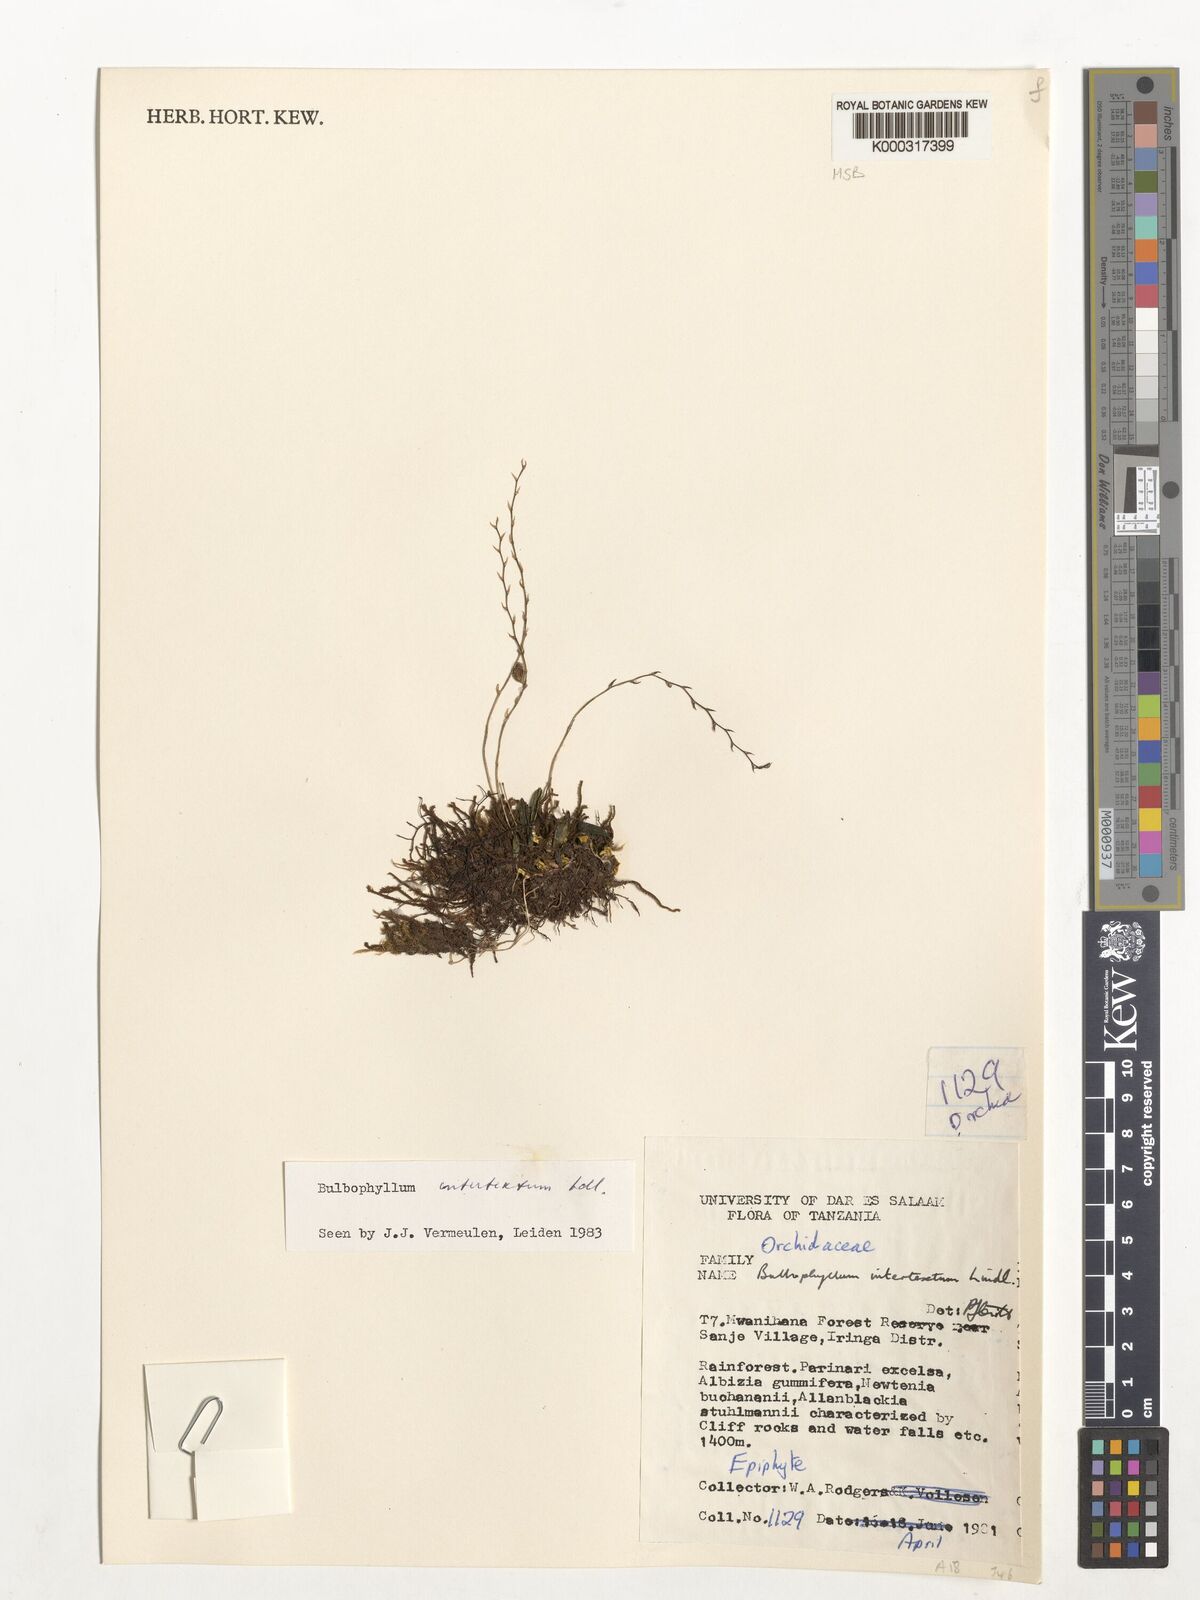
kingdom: Plantae
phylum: Tracheophyta
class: Liliopsida
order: Asparagales
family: Orchidaceae
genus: Bulbophyllum
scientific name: Bulbophyllum intertextum
